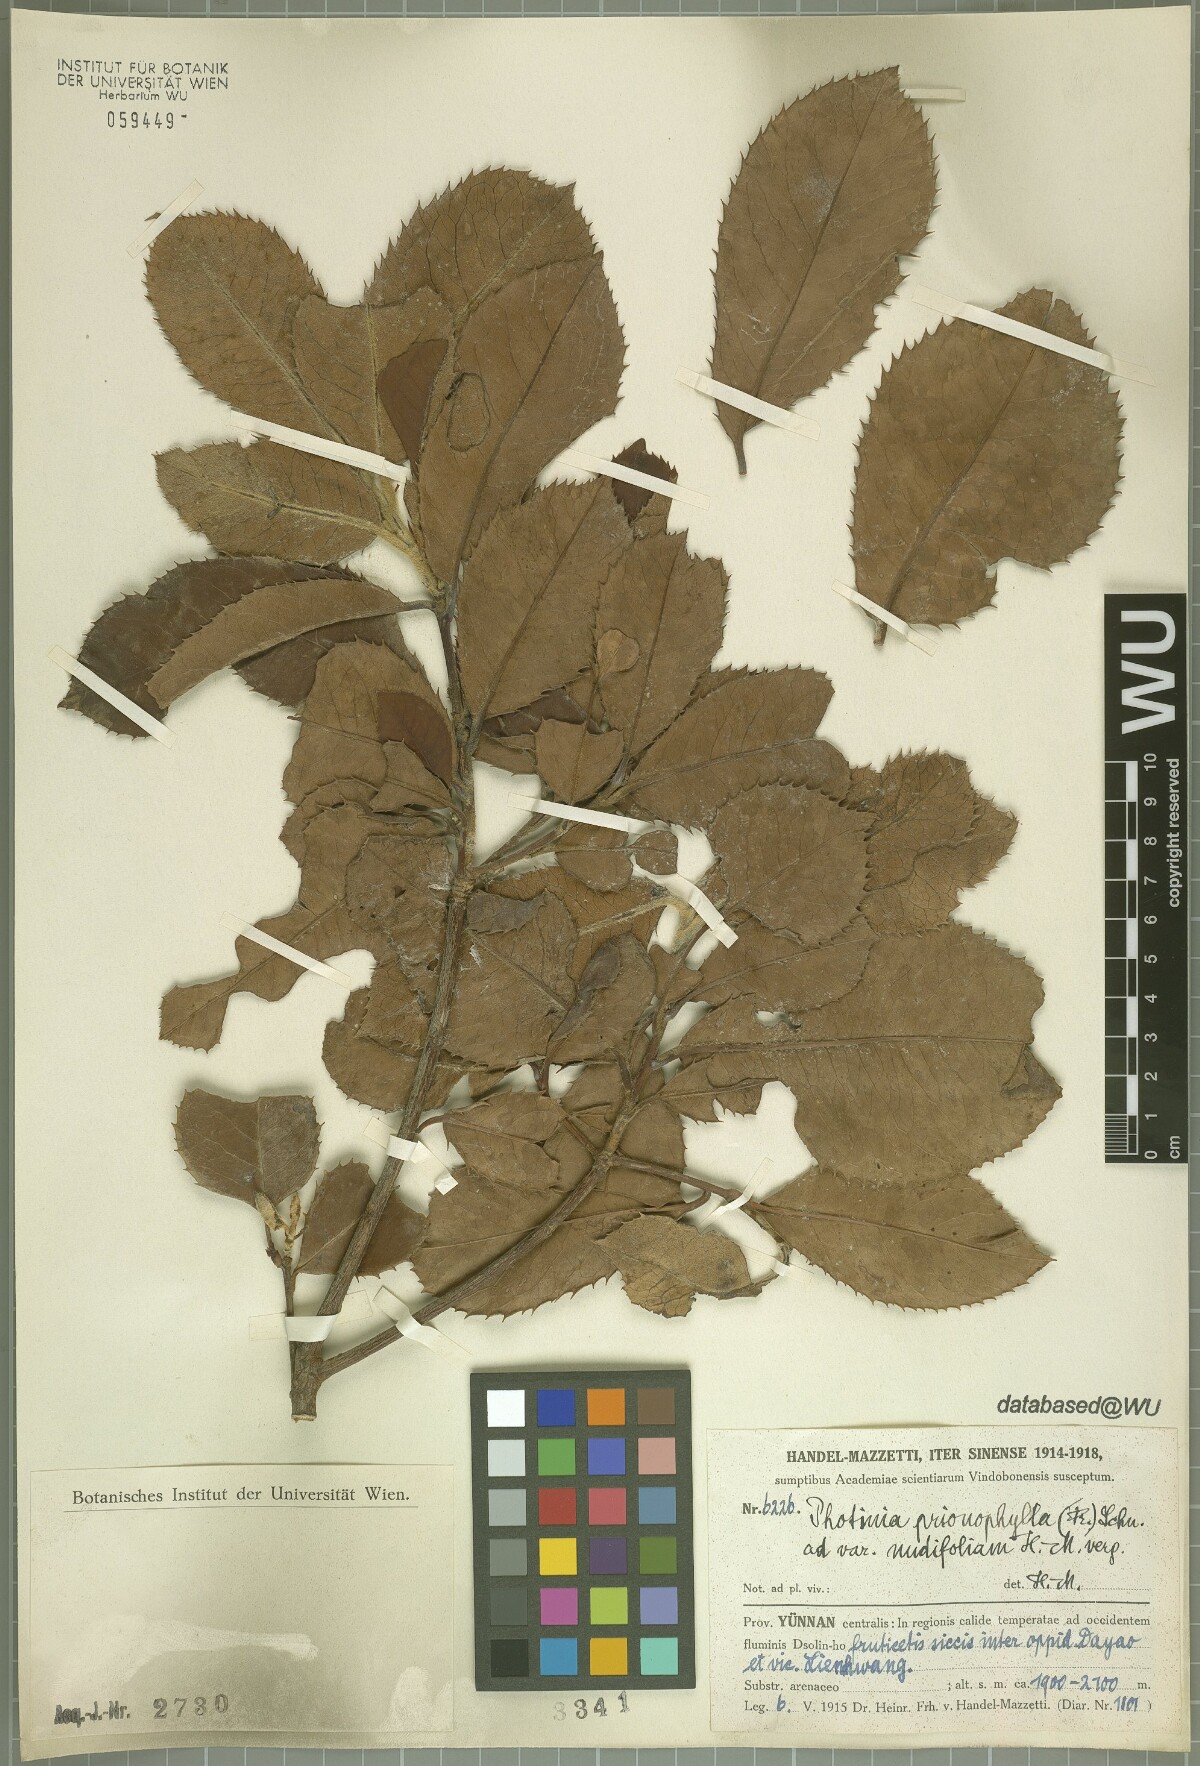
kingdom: Plantae
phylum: Tracheophyta
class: Magnoliopsida
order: Rosales
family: Rosaceae
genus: Photinia
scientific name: Photinia prionophylla
